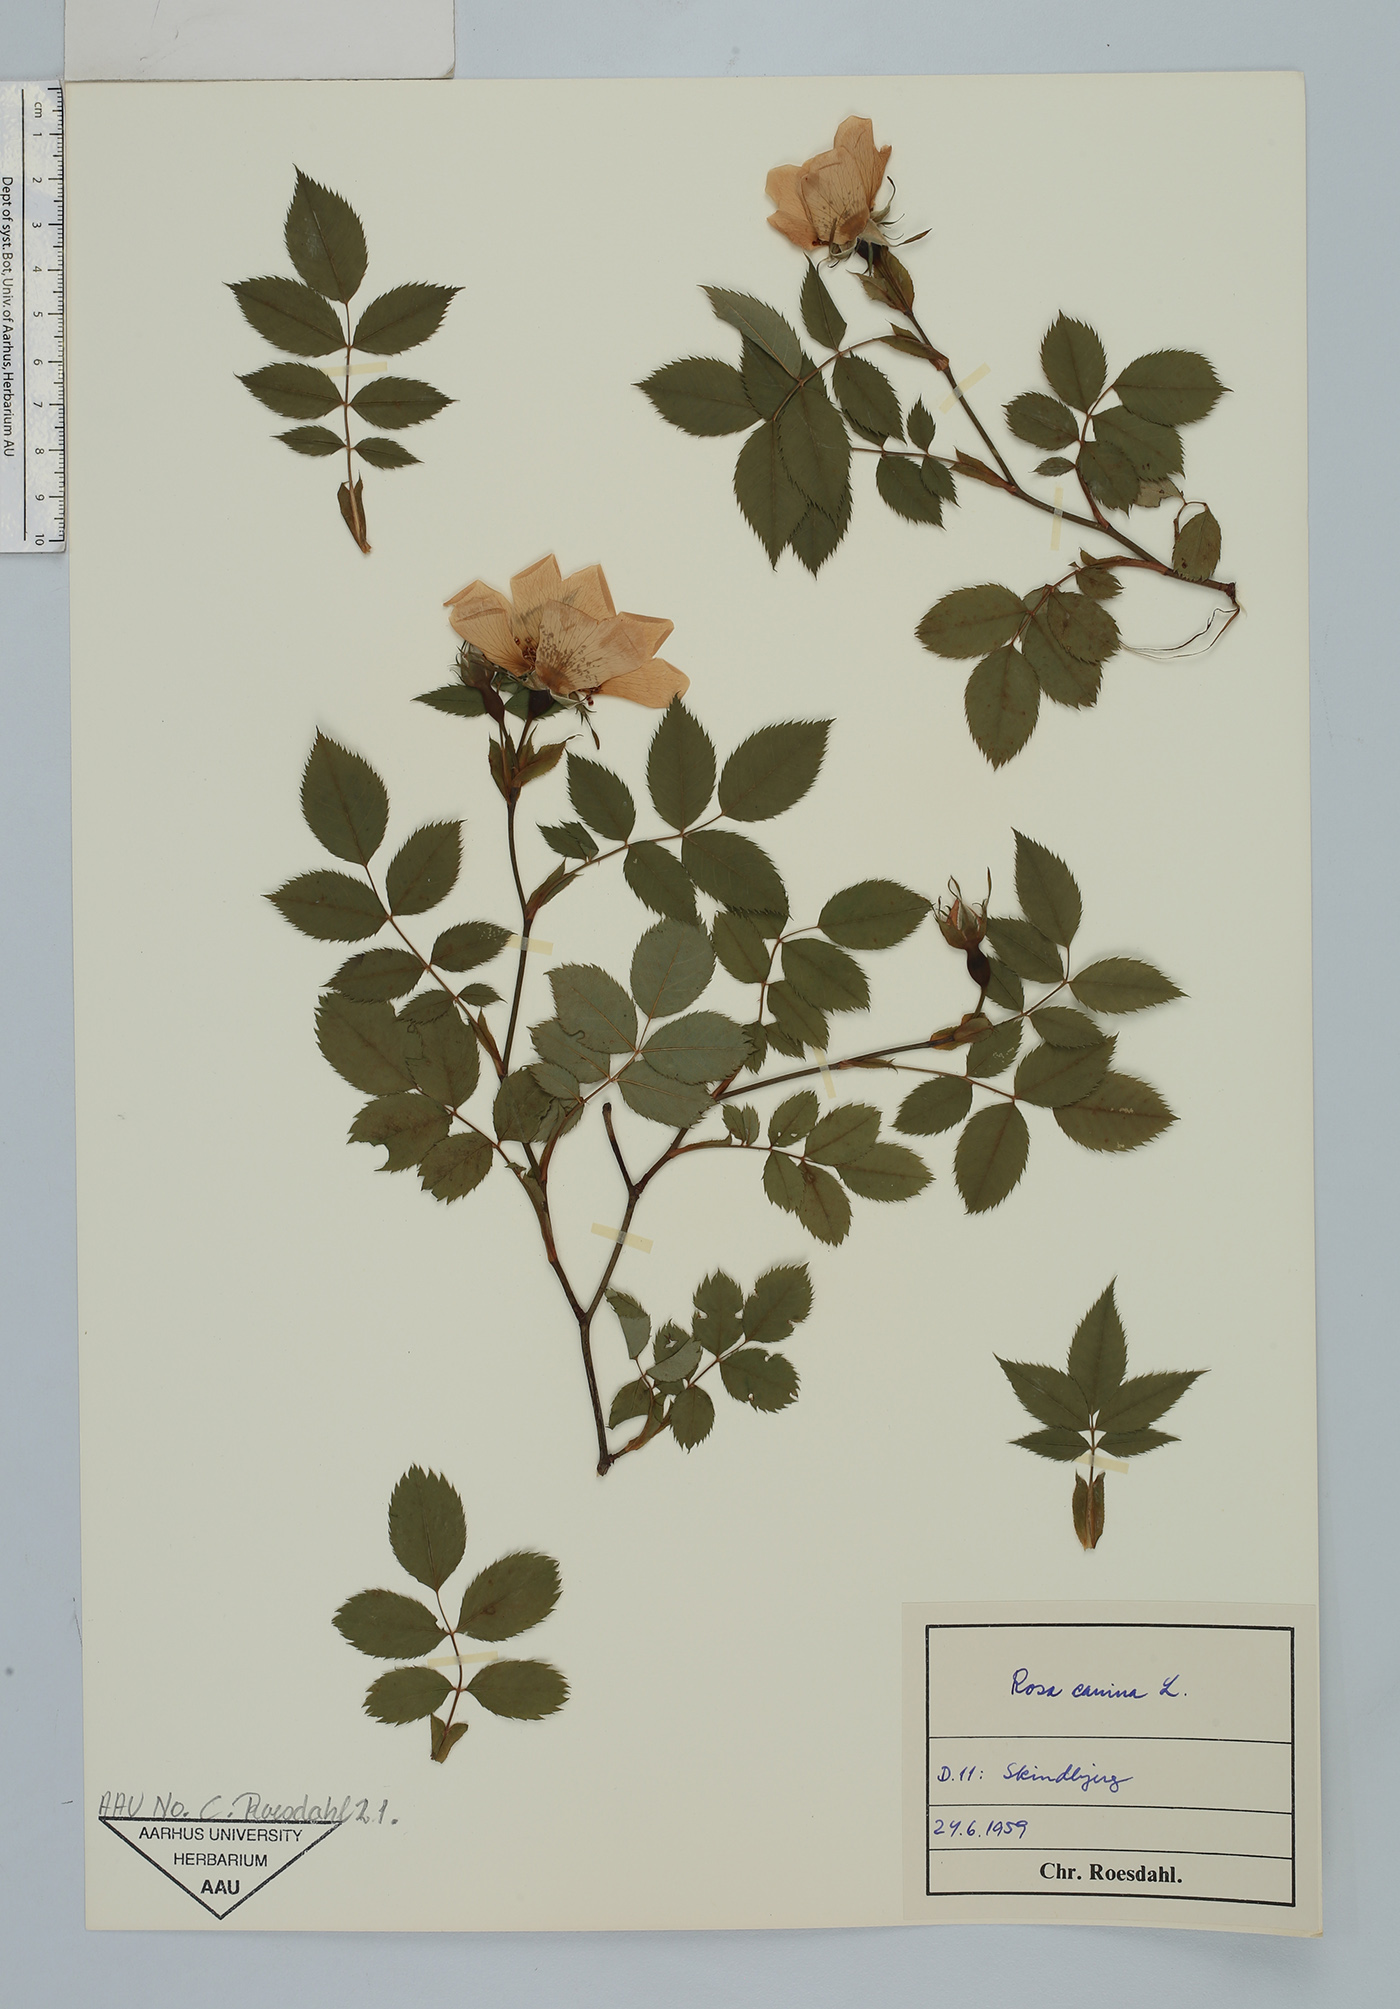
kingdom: Plantae
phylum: Tracheophyta
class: Magnoliopsida
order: Rosales
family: Rosaceae
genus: Rosa
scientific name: Rosa canina
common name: Dog rose
